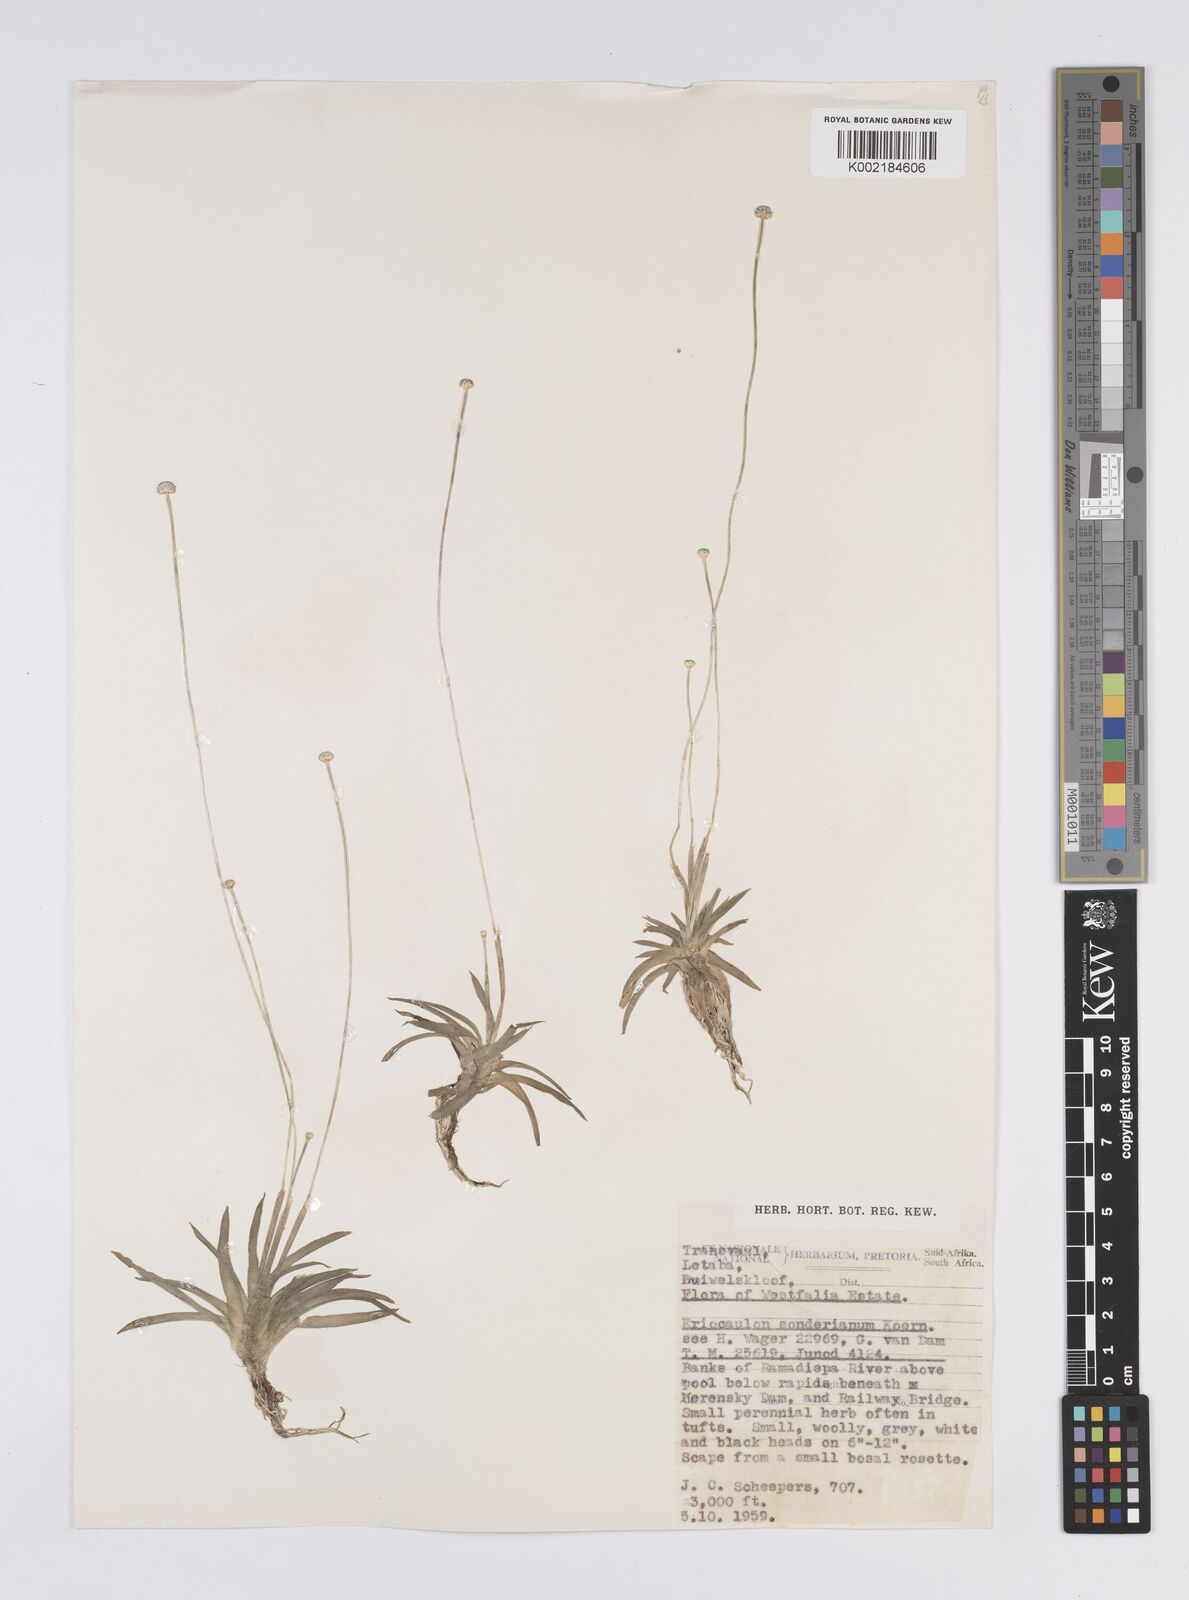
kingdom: Plantae
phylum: Tracheophyta
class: Liliopsida
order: Poales
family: Eriocaulaceae
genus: Eriocaulon
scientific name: Eriocaulon
